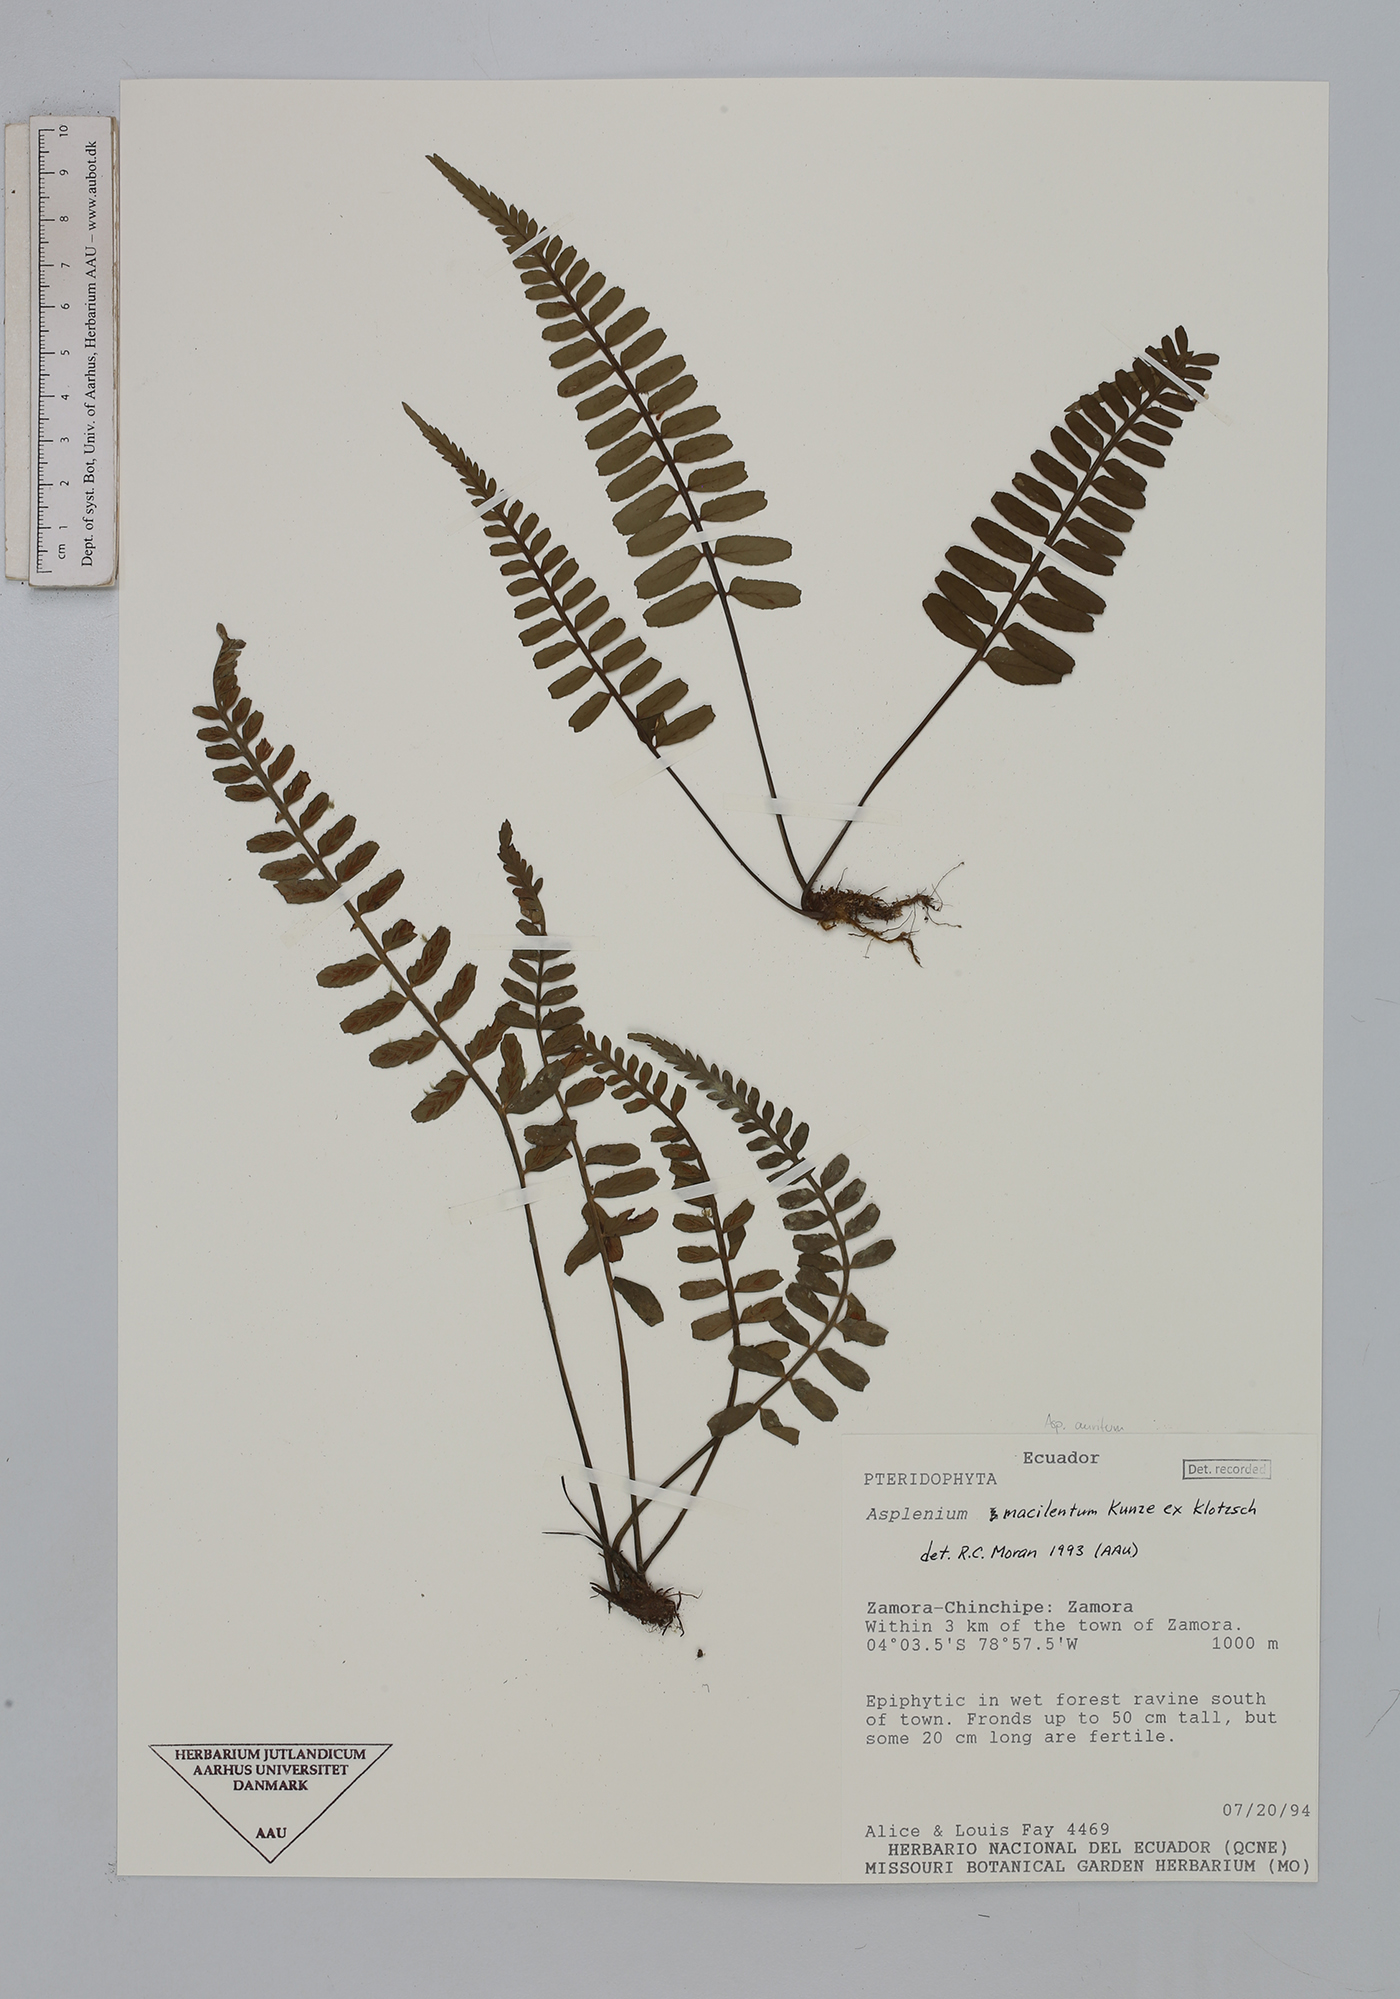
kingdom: Plantae
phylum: Tracheophyta
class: Polypodiopsida
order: Polypodiales
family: Aspleniaceae
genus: Asplenium
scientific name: Asplenium auritum
